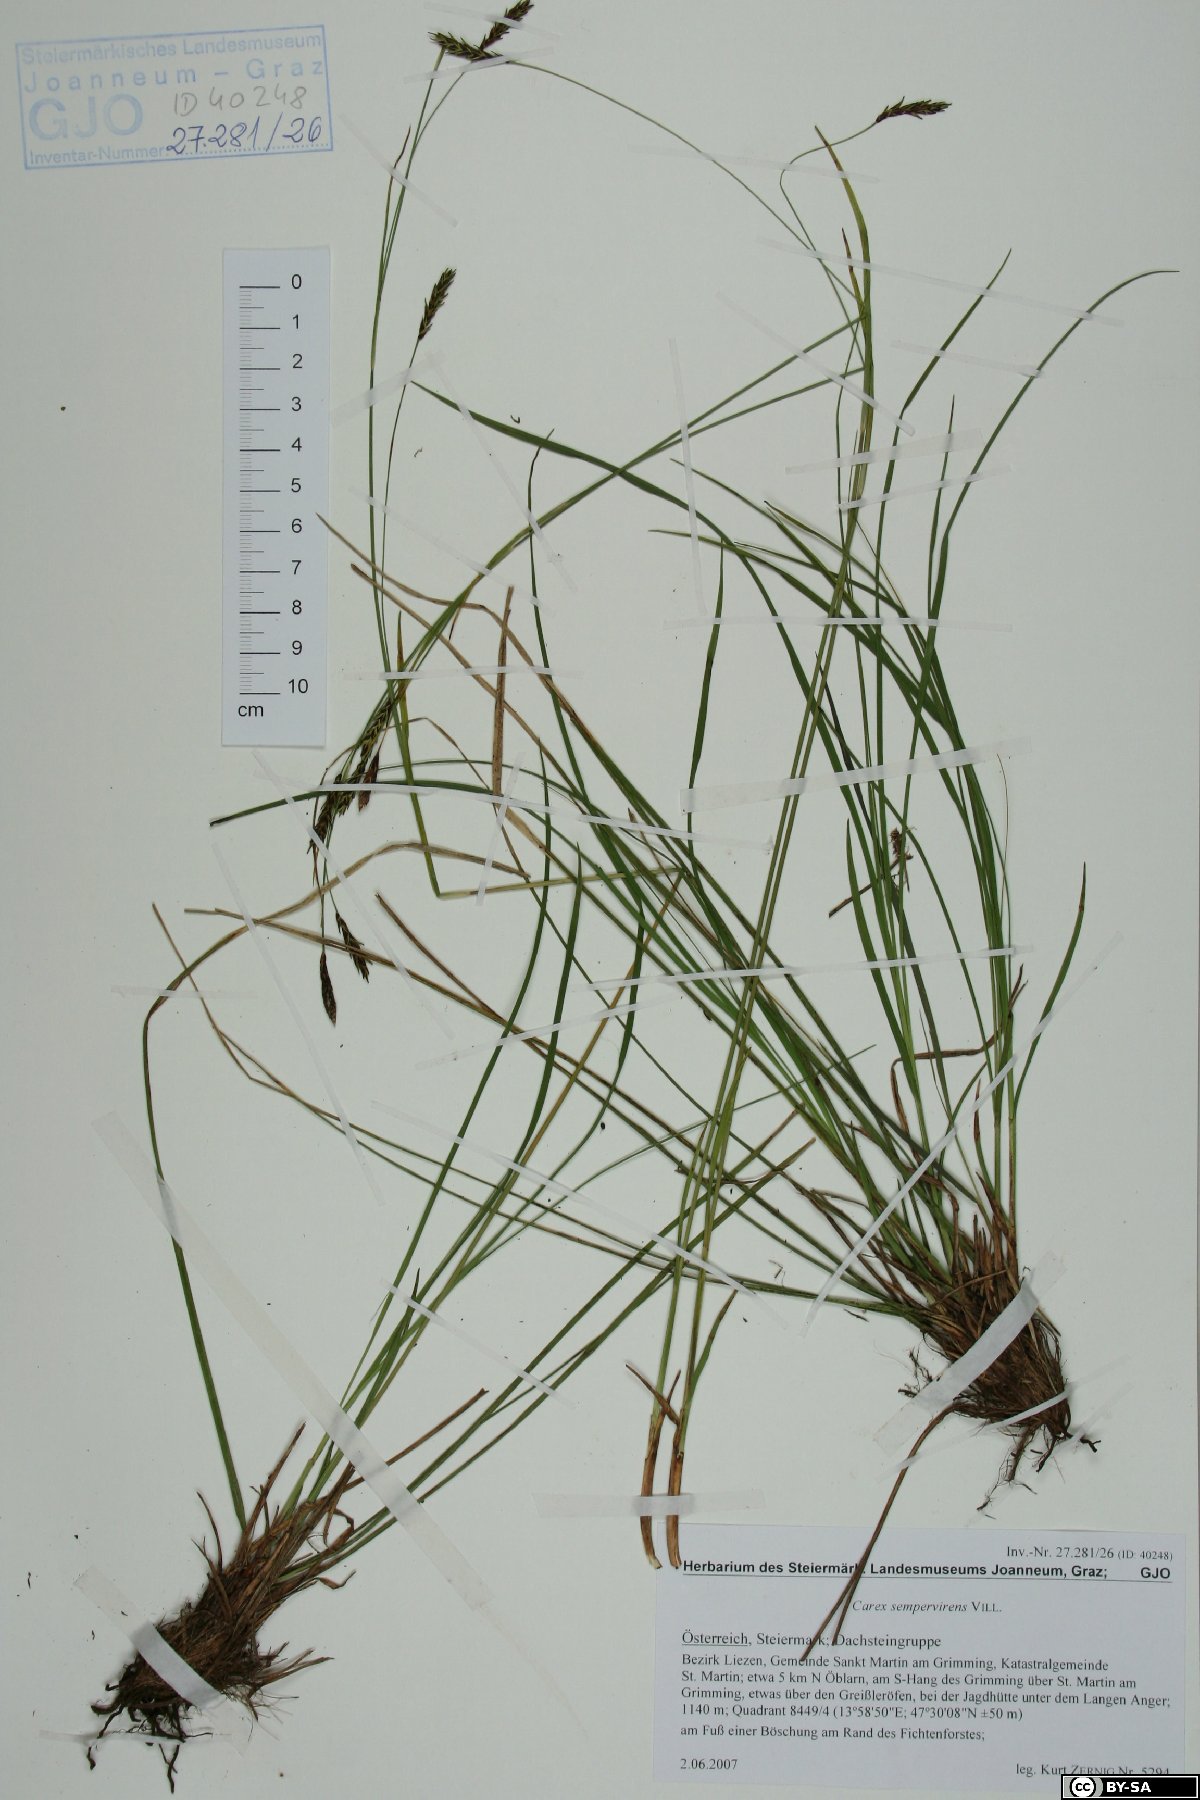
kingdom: Plantae
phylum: Tracheophyta
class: Liliopsida
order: Poales
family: Cyperaceae
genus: Carex
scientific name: Carex sempervirens
